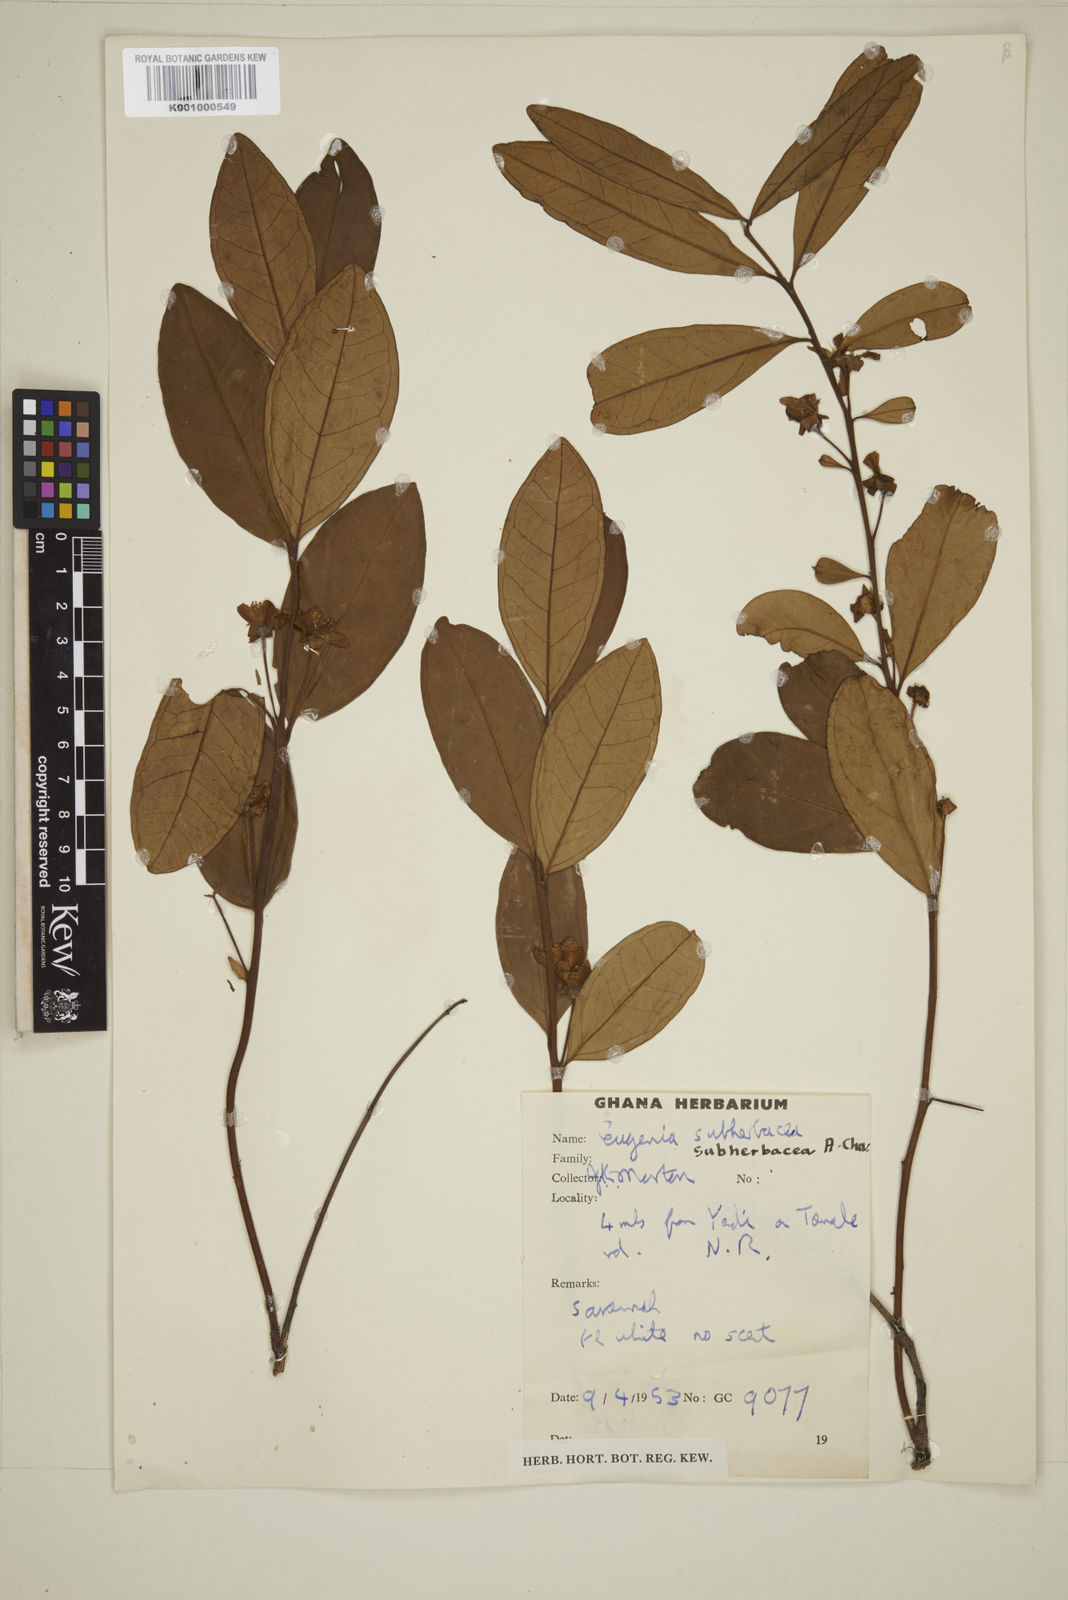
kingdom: Plantae
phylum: Tracheophyta
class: Magnoliopsida
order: Myrtales
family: Myrtaceae
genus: Eugenia
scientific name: Eugenia subherbacea
